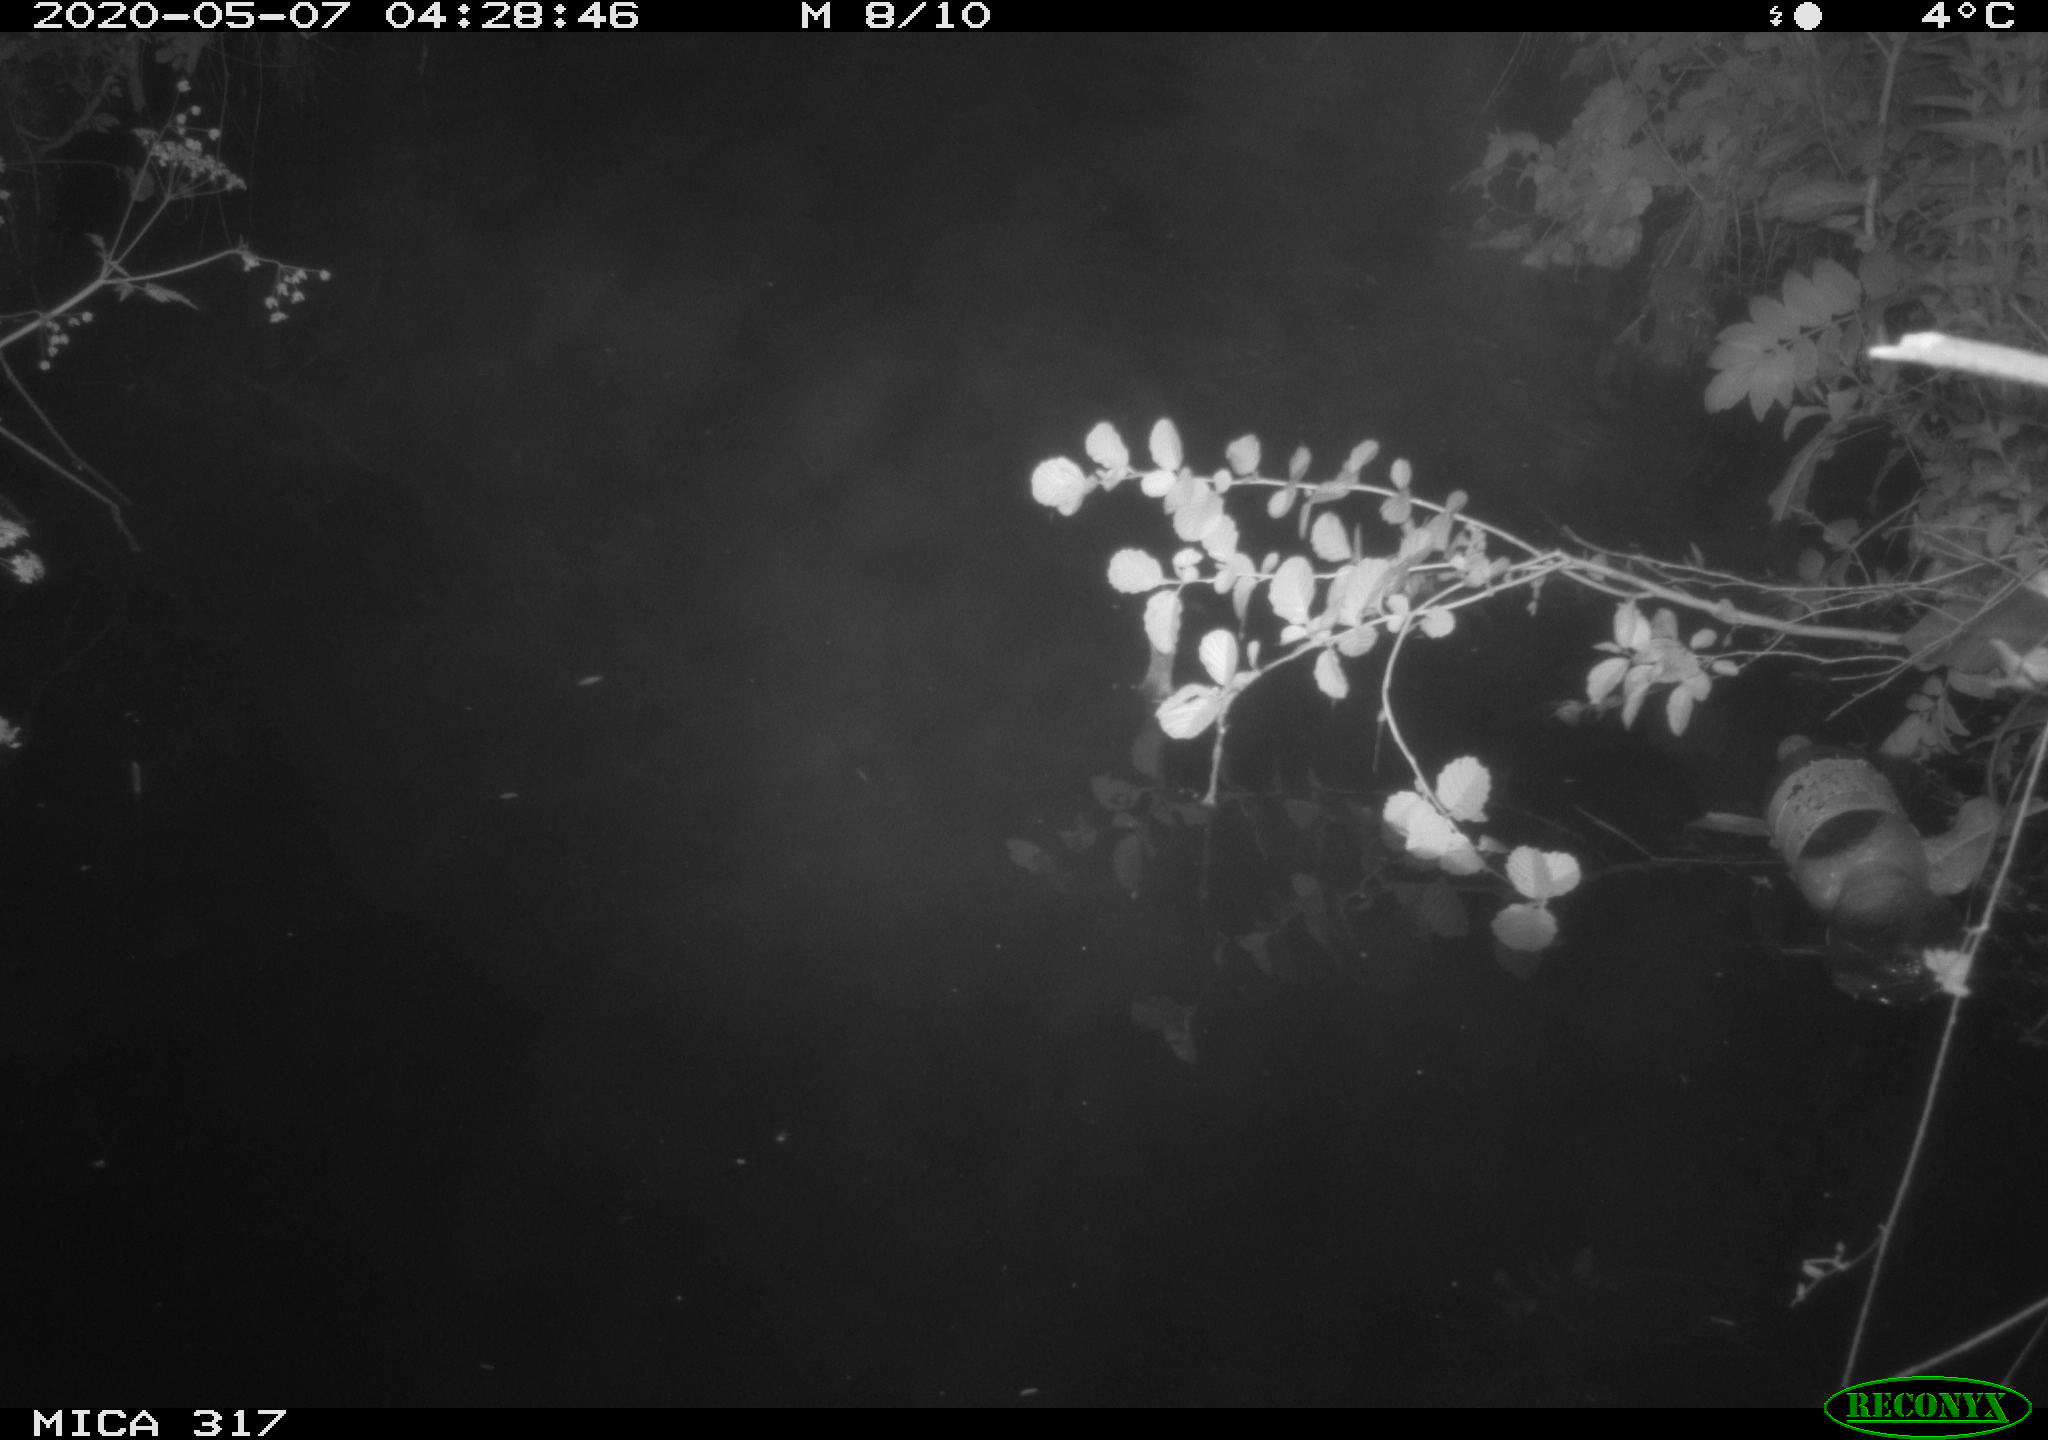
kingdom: Animalia
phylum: Chordata
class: Aves
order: Anseriformes
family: Anatidae
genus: Anas
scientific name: Anas platyrhynchos
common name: Mallard
